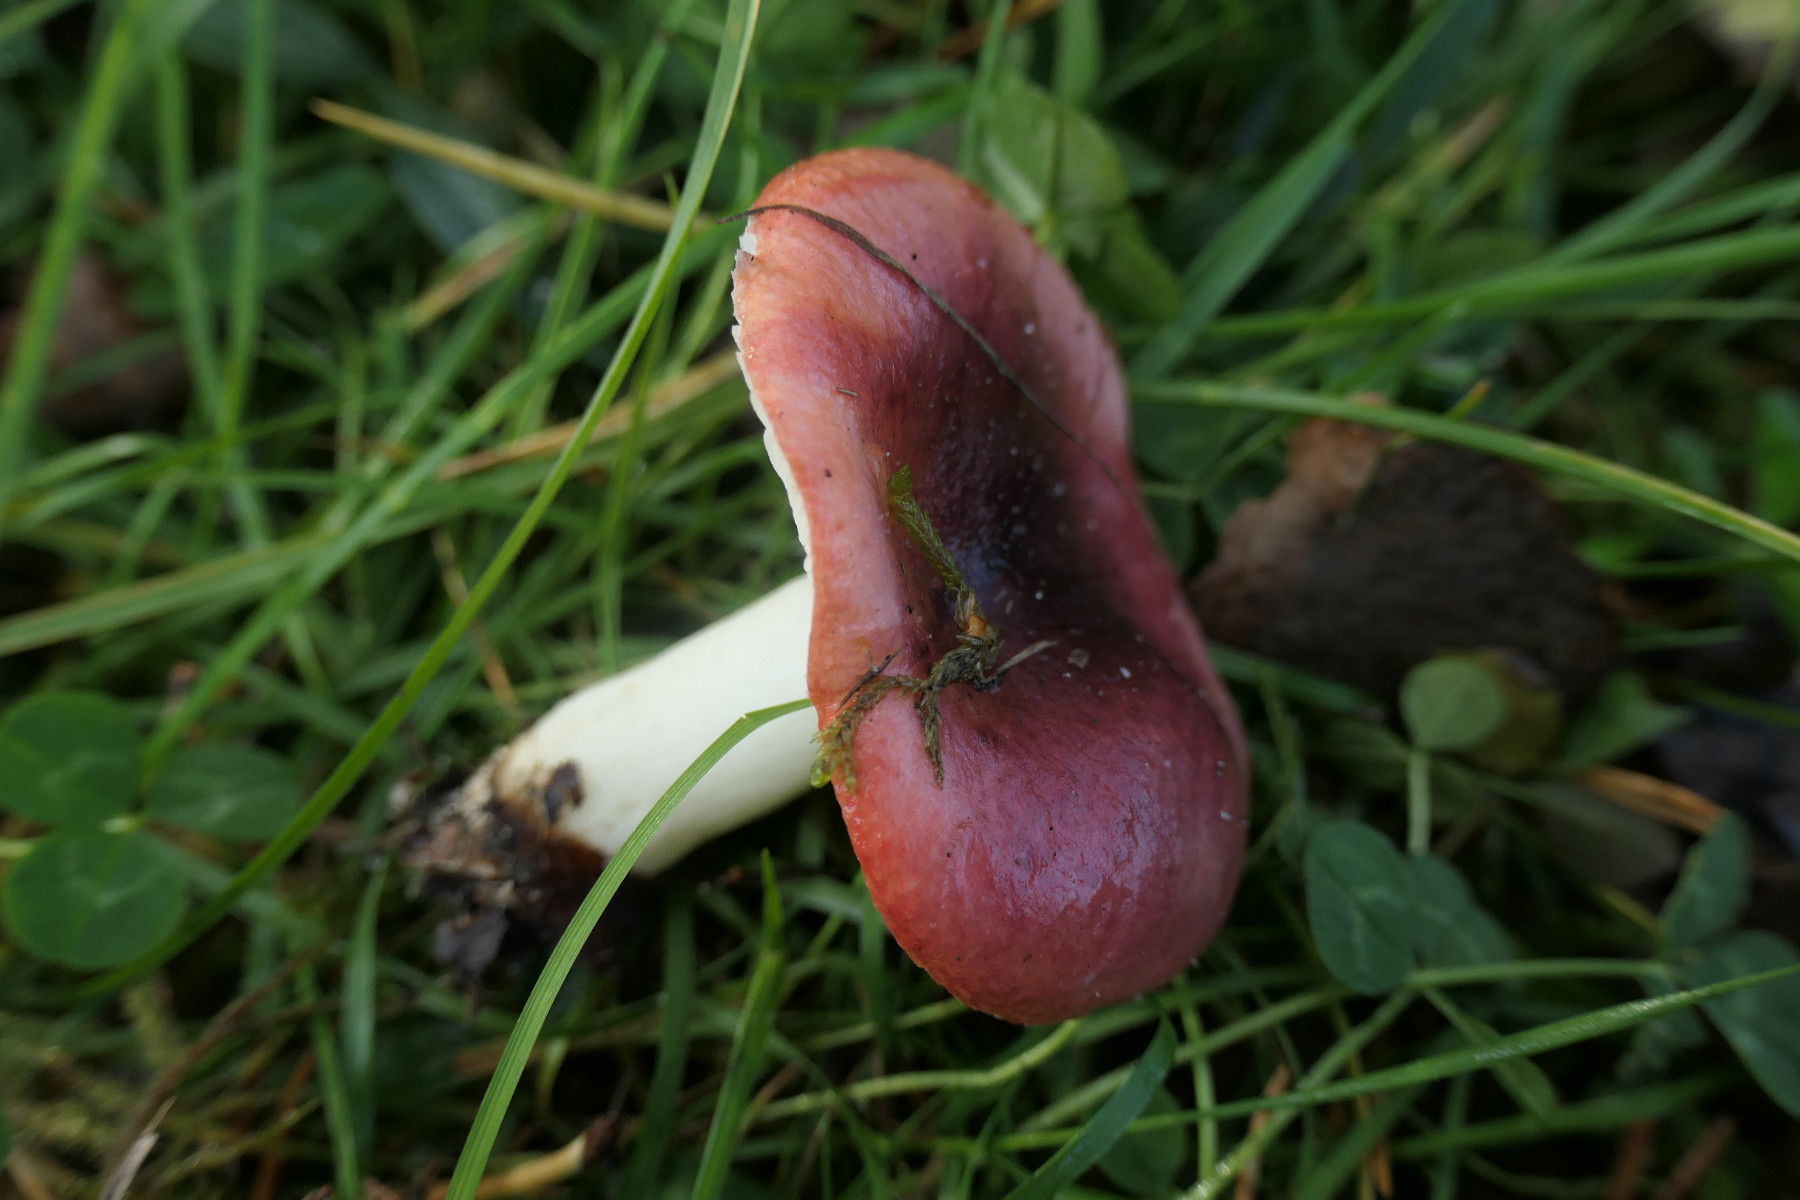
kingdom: Fungi
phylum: Basidiomycota
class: Agaricomycetes
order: Russulales
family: Russulaceae
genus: Russula
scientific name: Russula atrorubens
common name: sortrød skørhat
